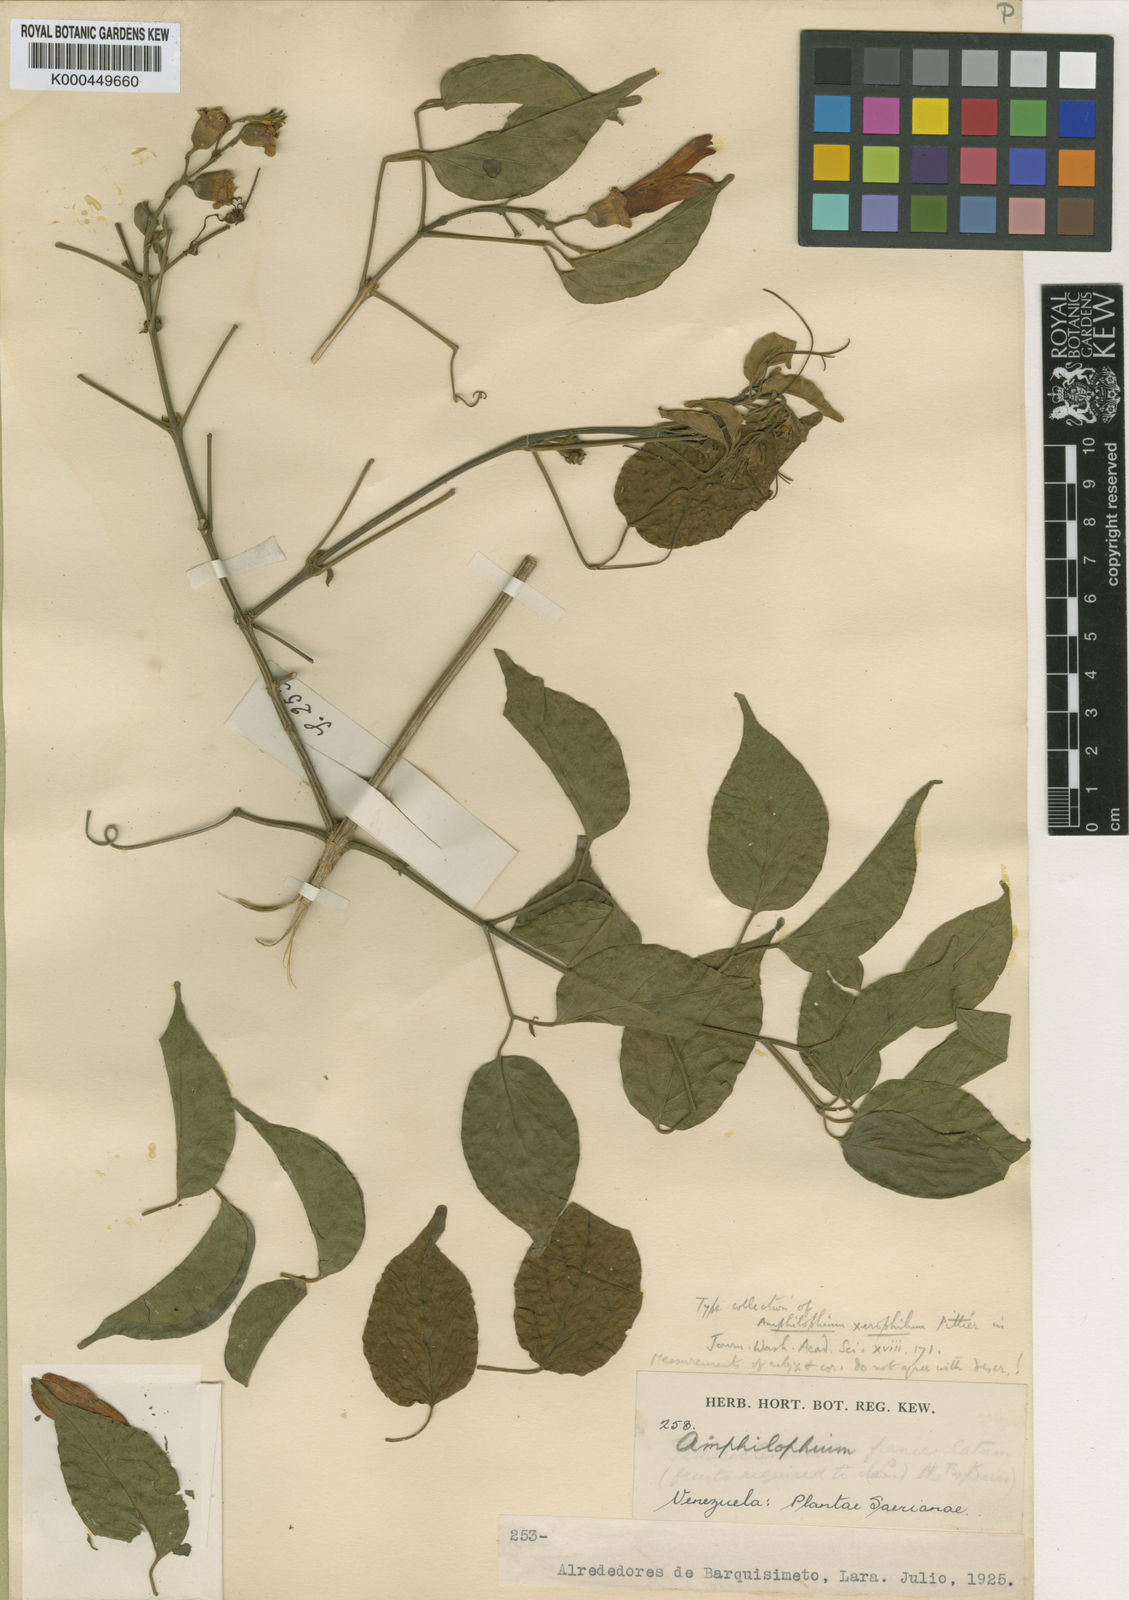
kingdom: Plantae
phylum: Tracheophyta
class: Magnoliopsida
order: Lamiales
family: Bignoniaceae
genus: Amphilophium
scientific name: Amphilophium paniculatum
